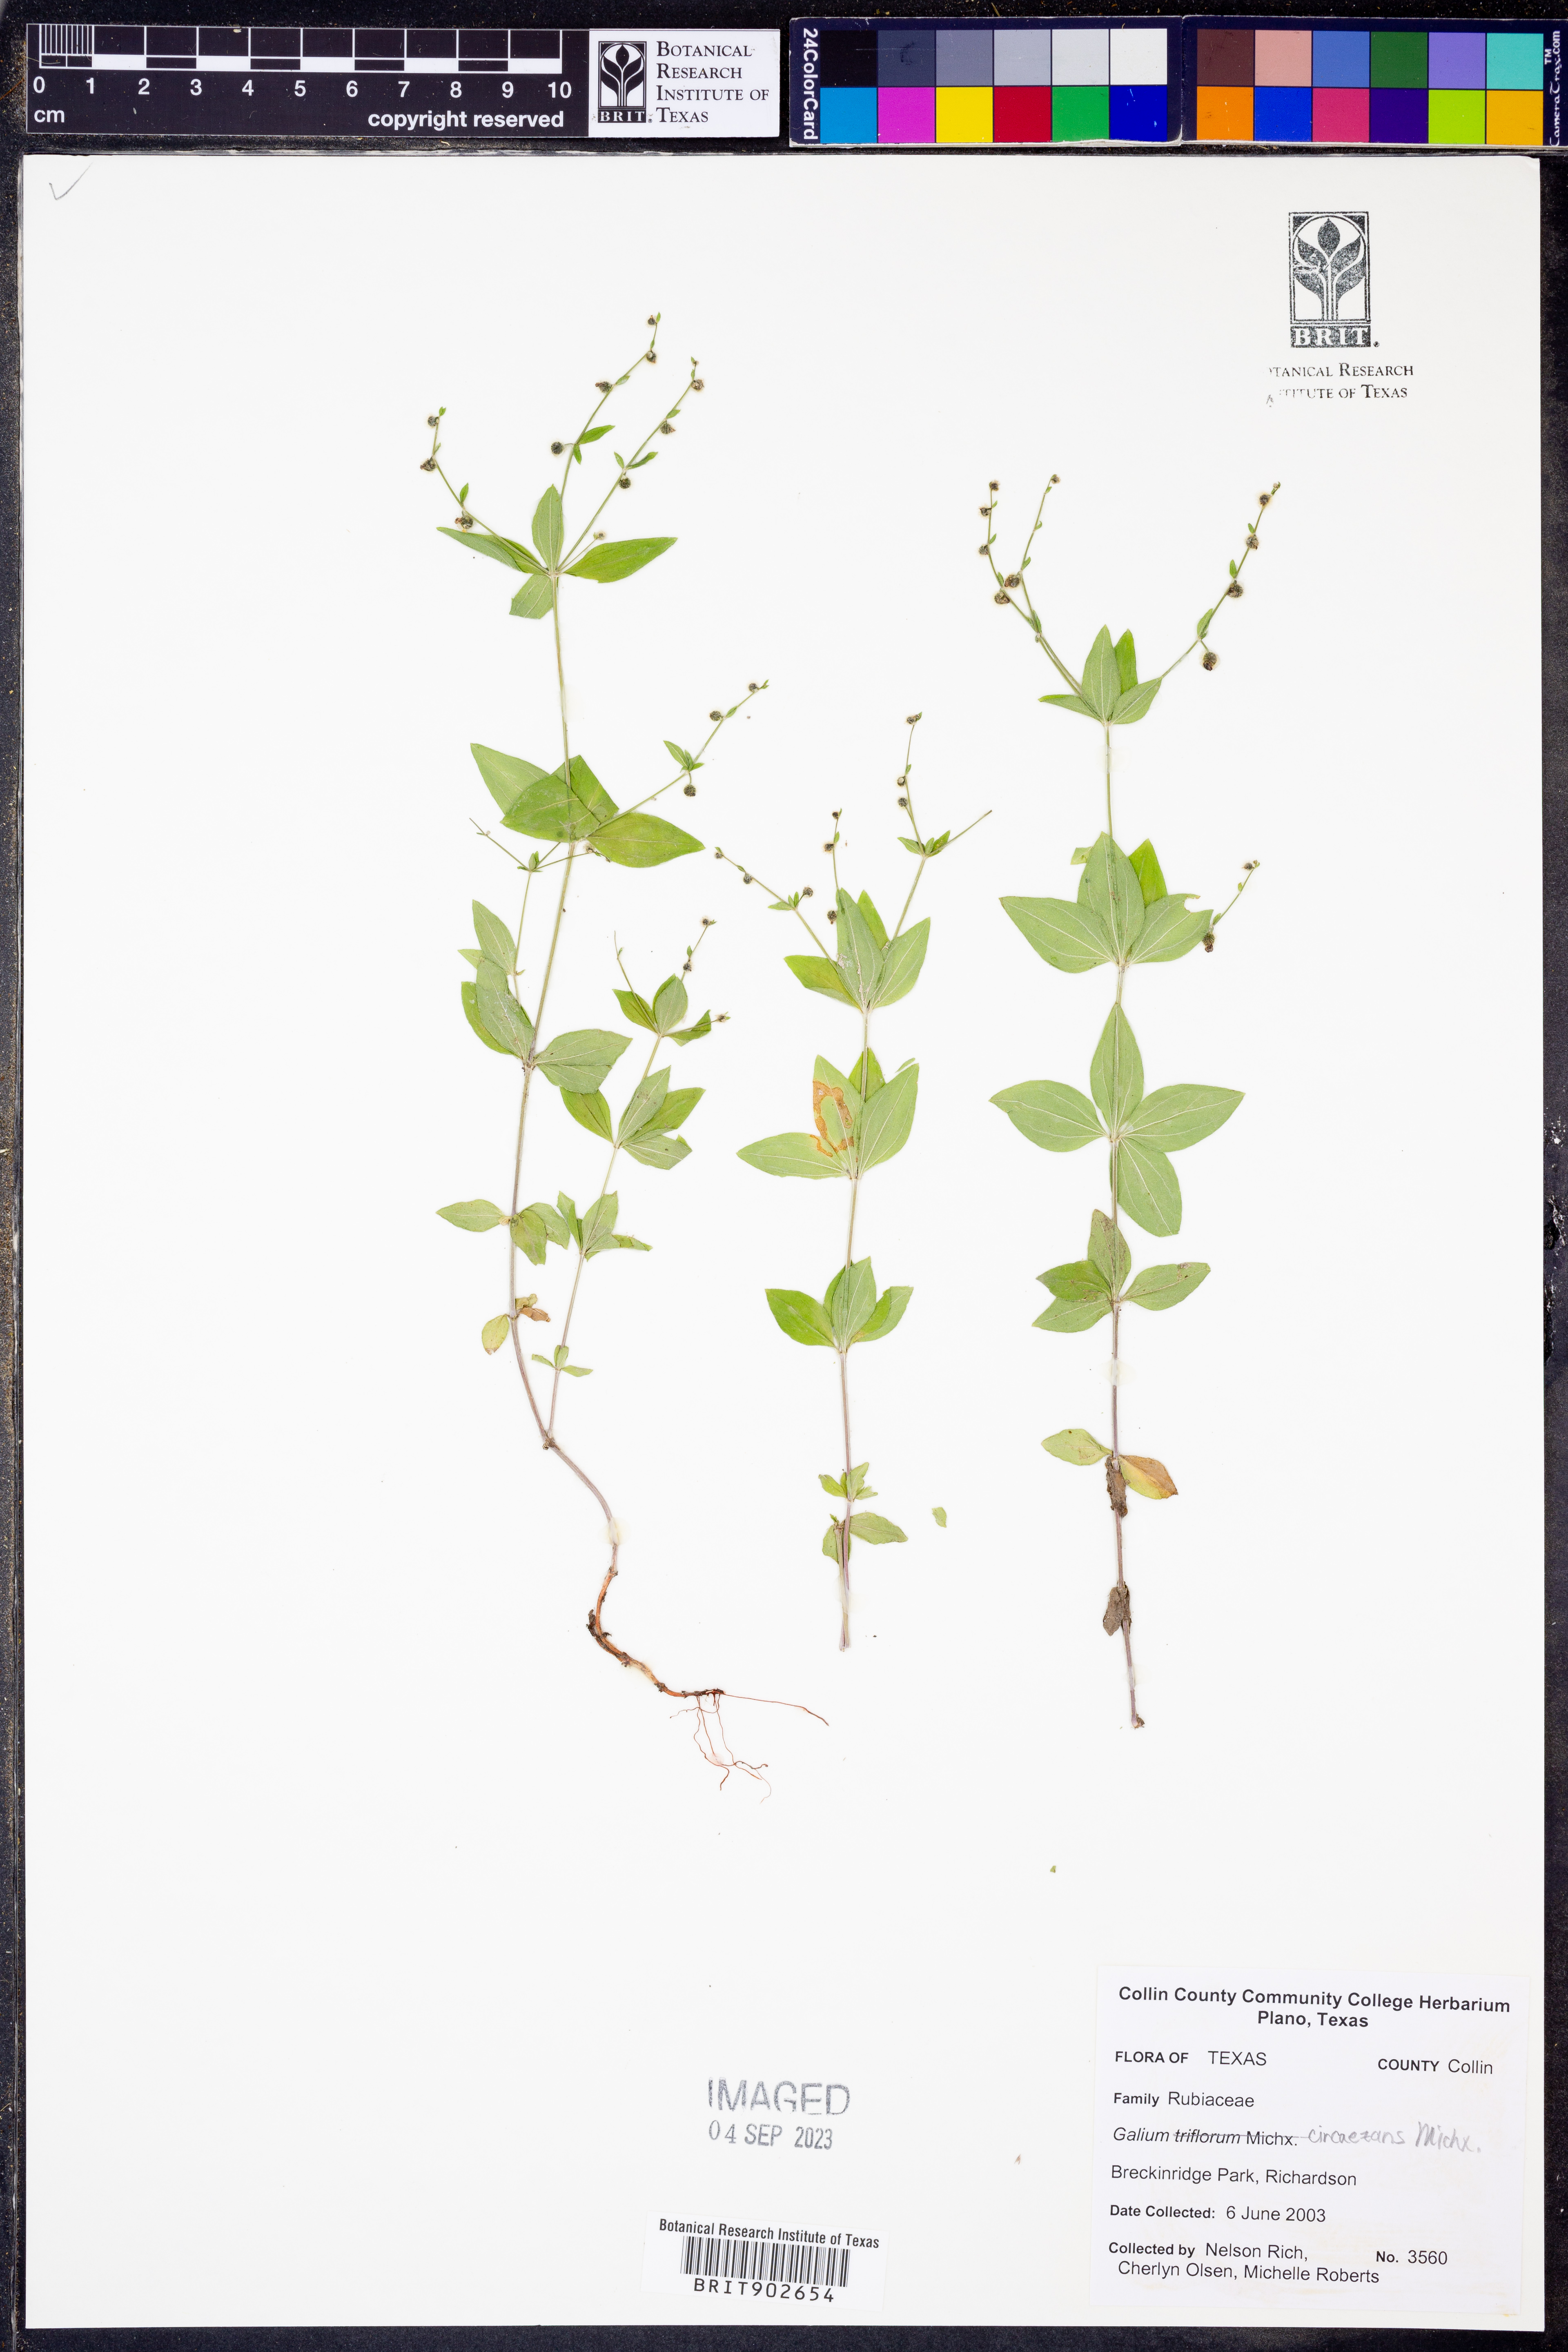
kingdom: Plantae
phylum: Tracheophyta
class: Magnoliopsida
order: Gentianales
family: Rubiaceae
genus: Galium
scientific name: Galium circaezans
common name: Forest bedstraw
